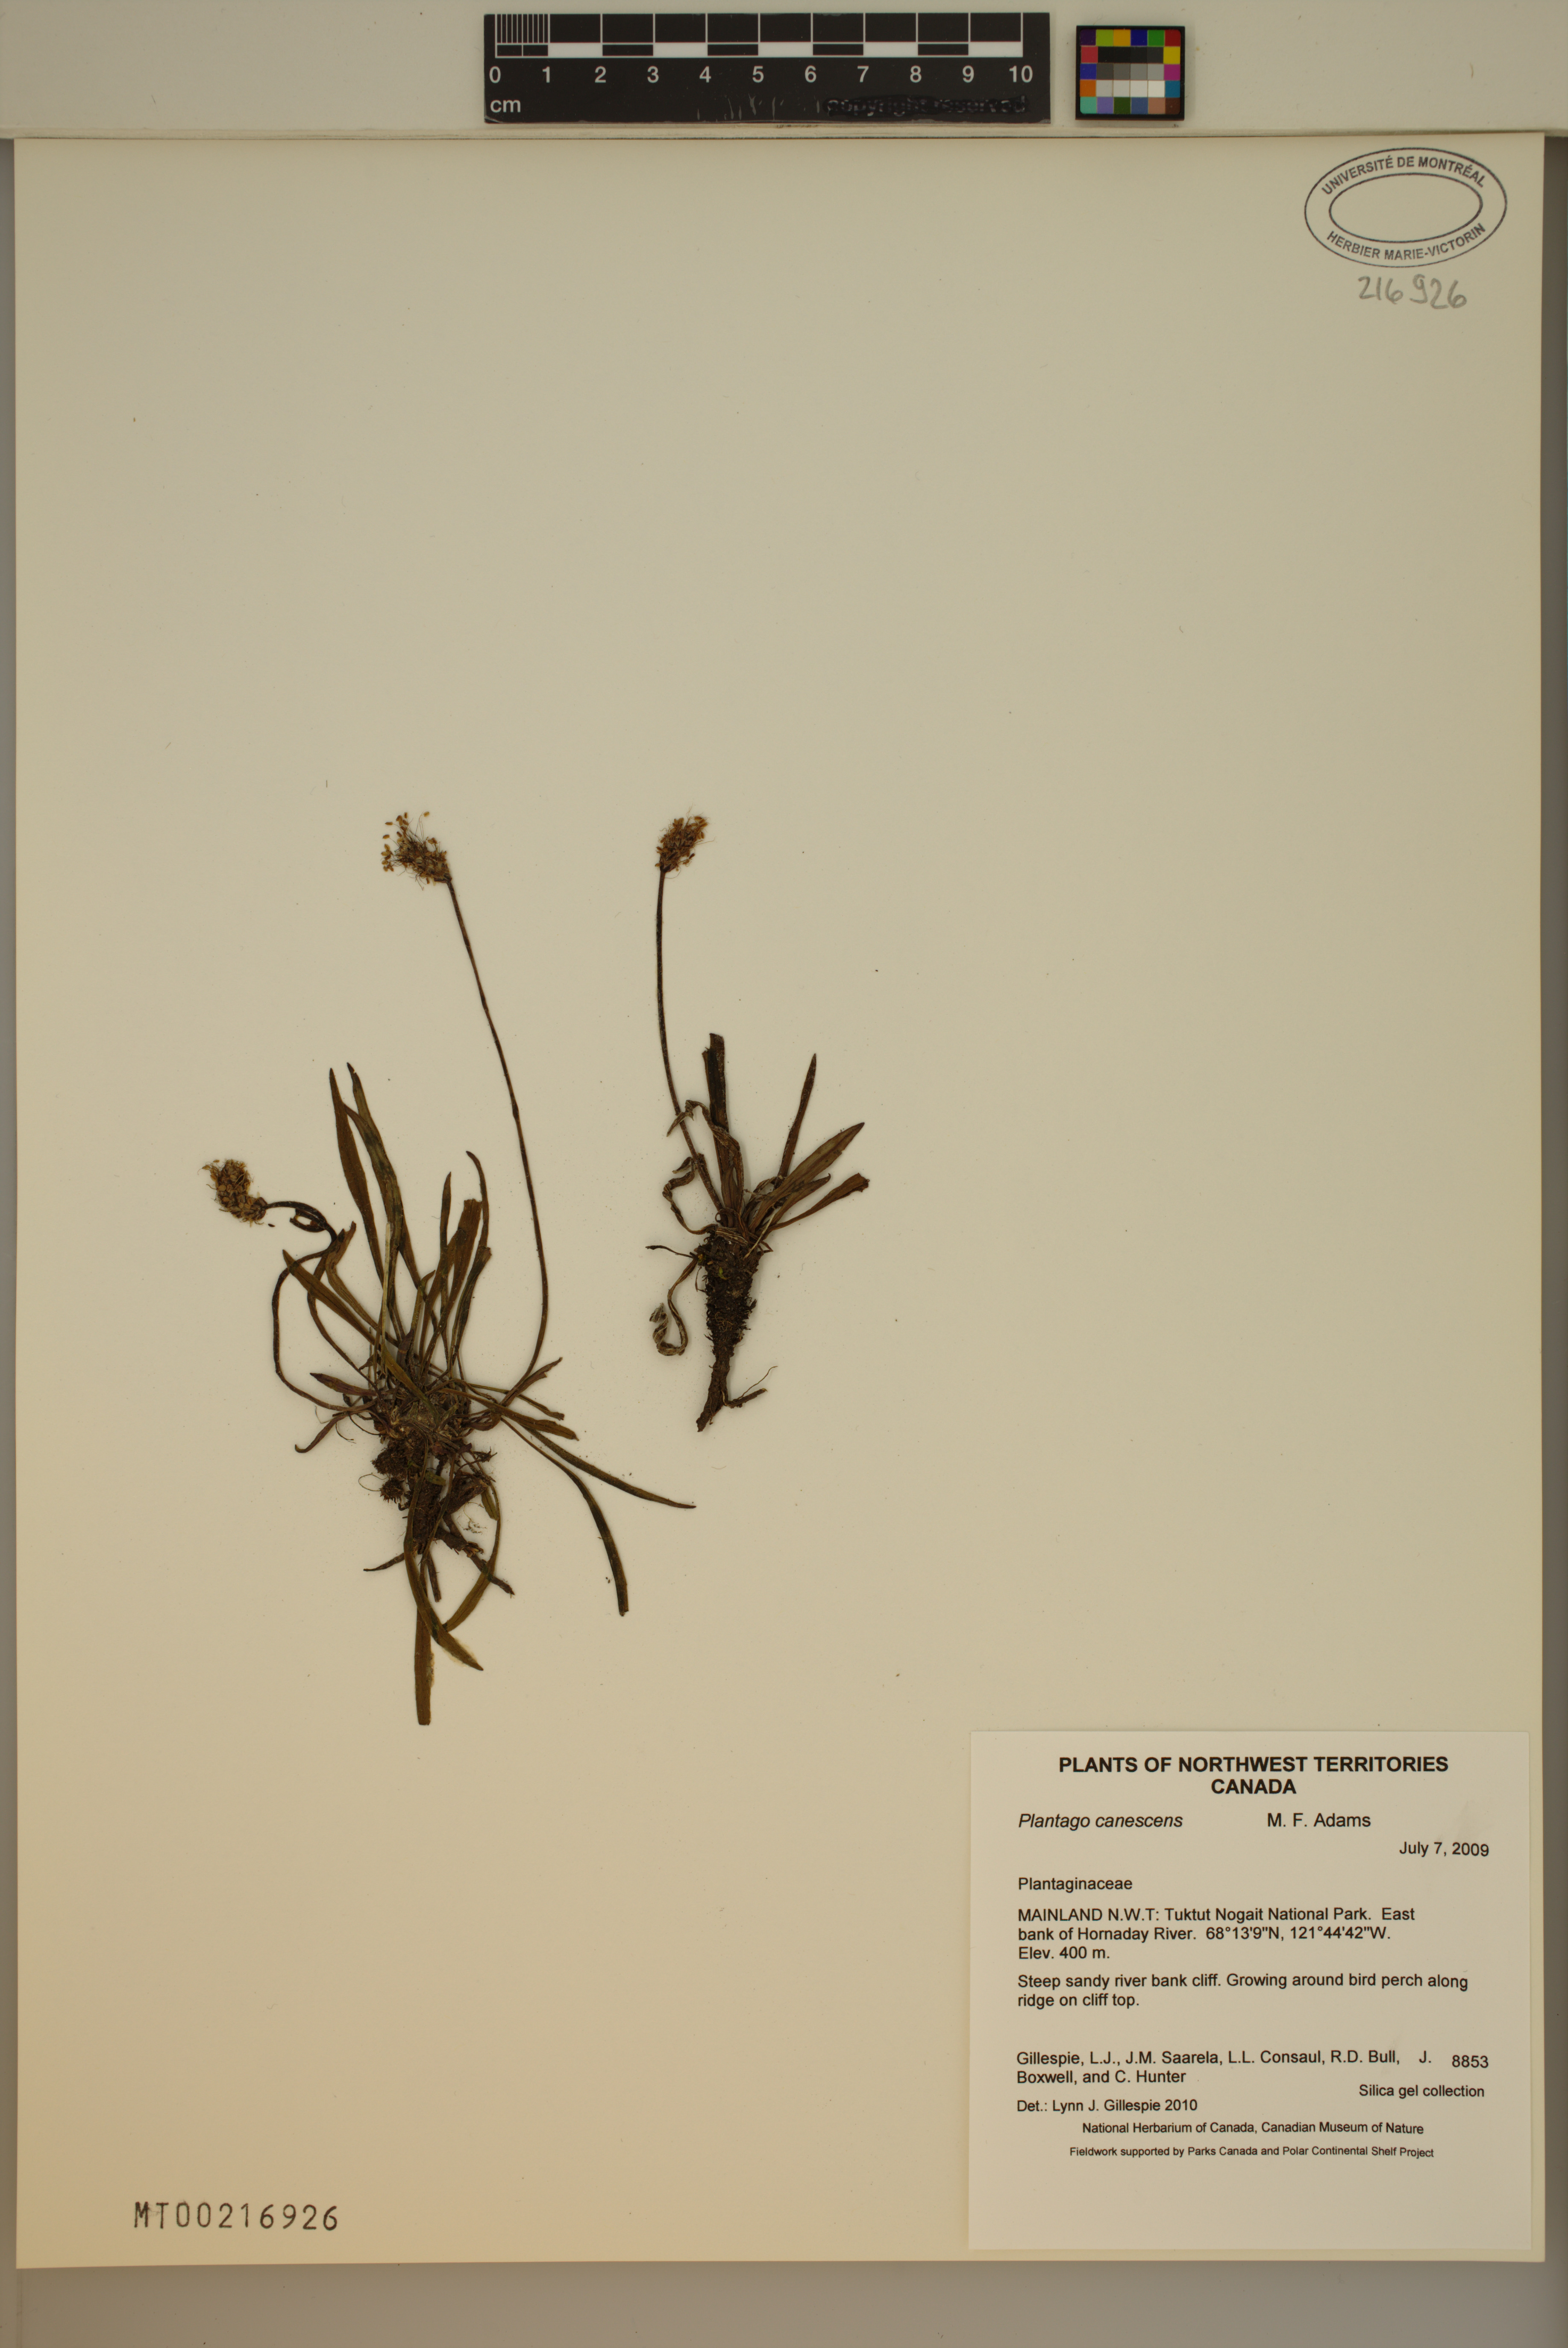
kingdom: Plantae
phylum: Tracheophyta
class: Magnoliopsida
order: Lamiales
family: Plantaginaceae
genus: Plantago
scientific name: Plantago canescens
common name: Siberian plantain
